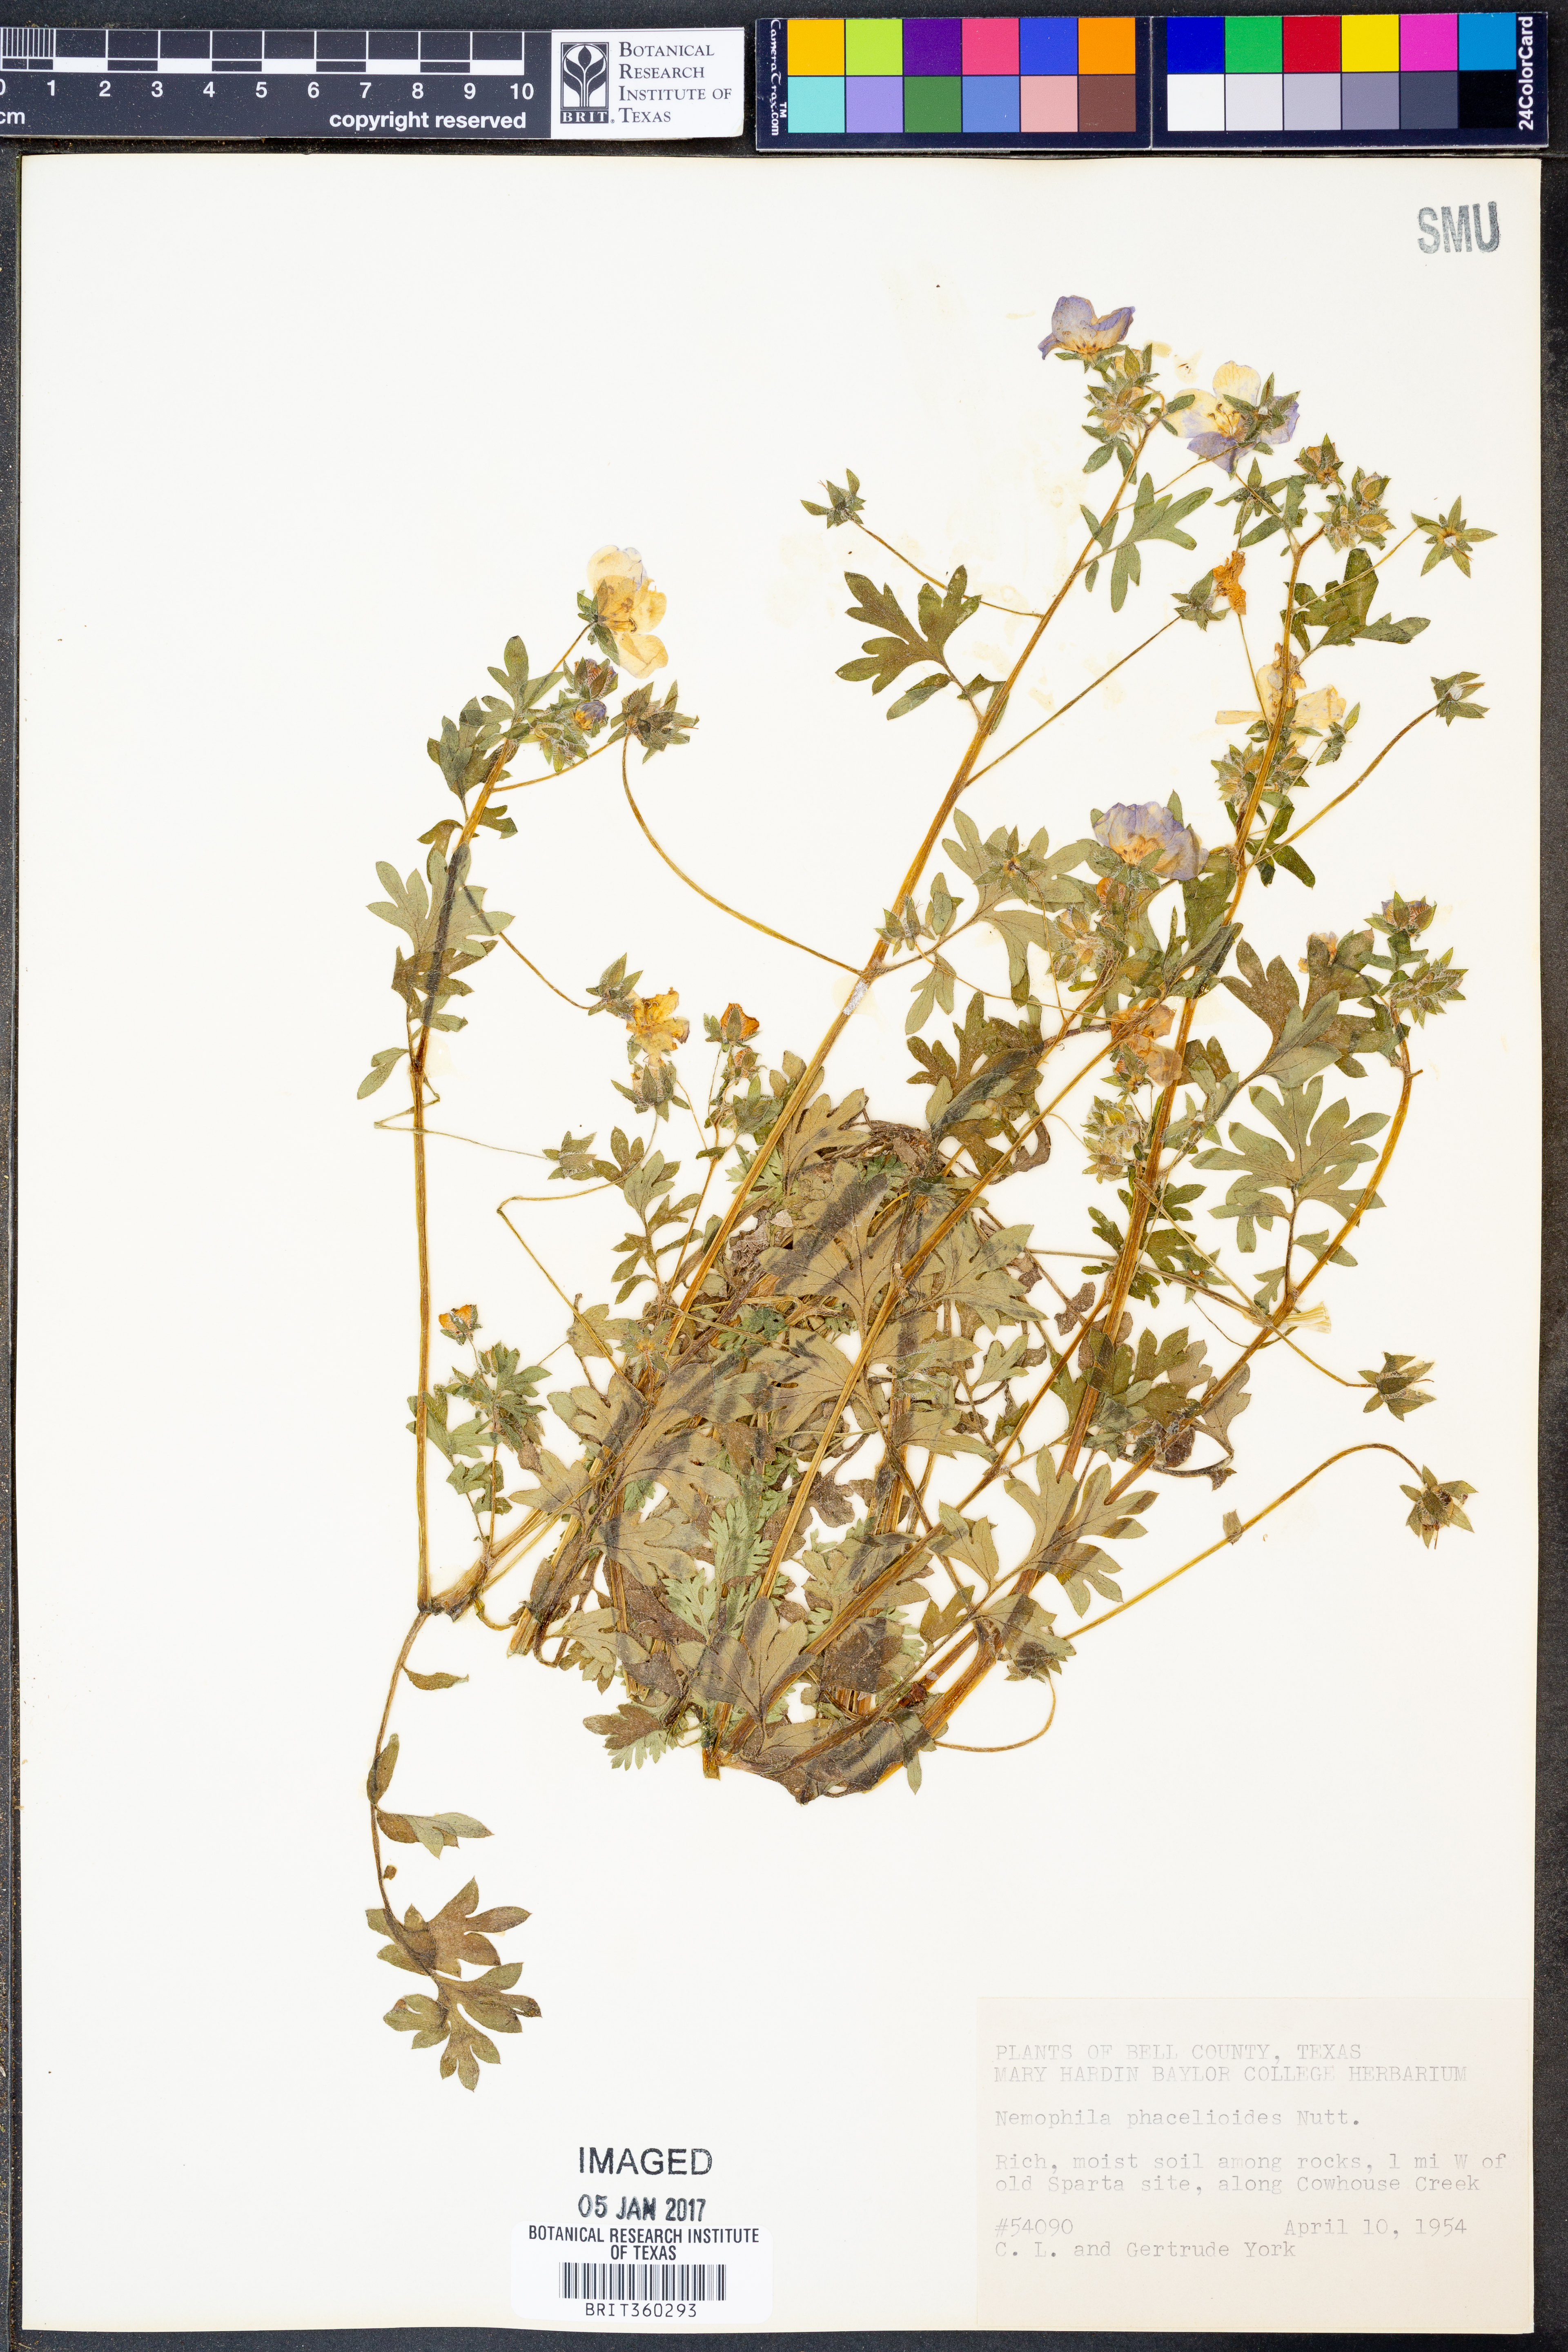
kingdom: Plantae
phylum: Tracheophyta
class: Magnoliopsida
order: Boraginales
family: Hydrophyllaceae
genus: Nemophila
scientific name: Nemophila phacelioides
